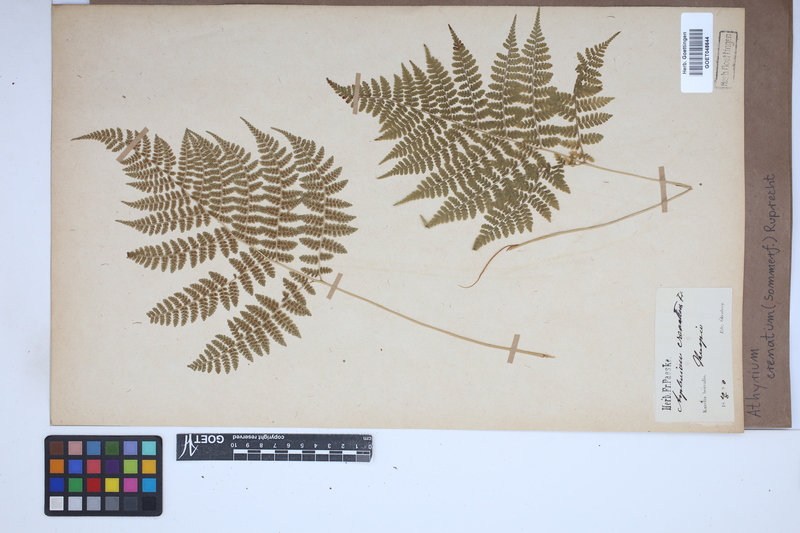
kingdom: Plantae
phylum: Tracheophyta
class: Polypodiopsida
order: Polypodiales
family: Athyriaceae
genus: Diplazium
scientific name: Diplazium sibiricum
